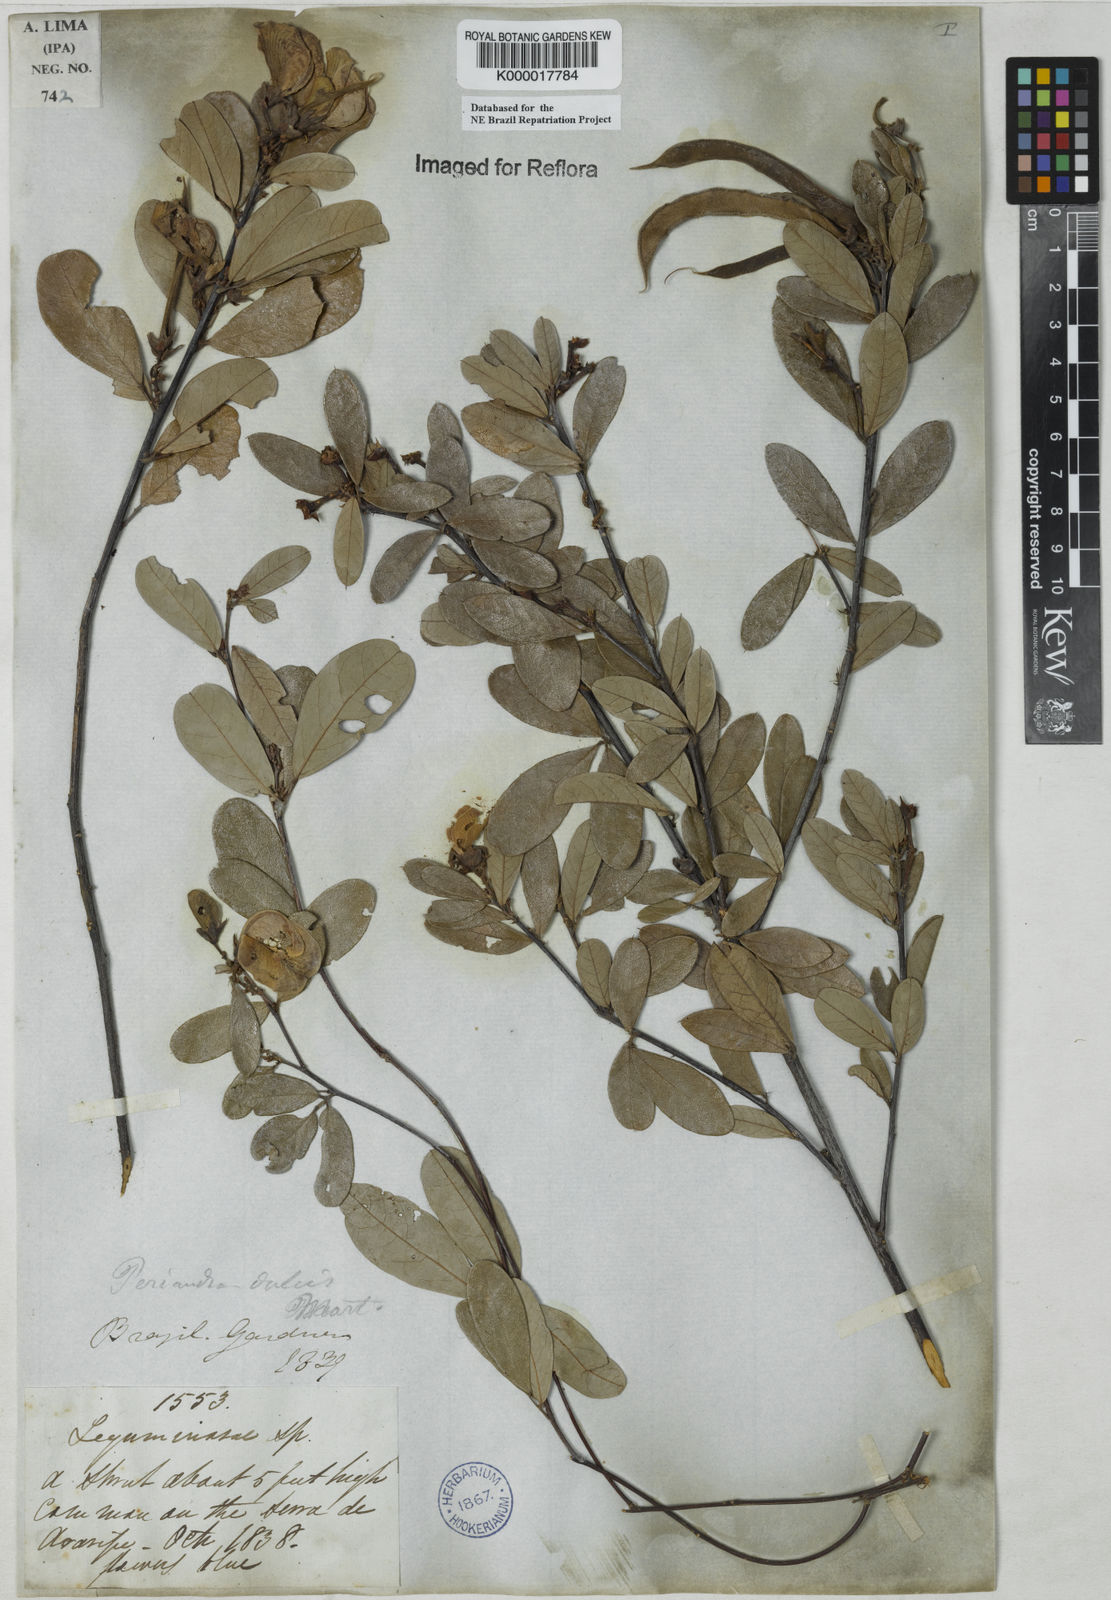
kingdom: Plantae
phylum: Tracheophyta
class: Magnoliopsida
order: Fabales
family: Fabaceae
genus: Periandra
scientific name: Periandra mediterranea
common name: Brazilian licorice
